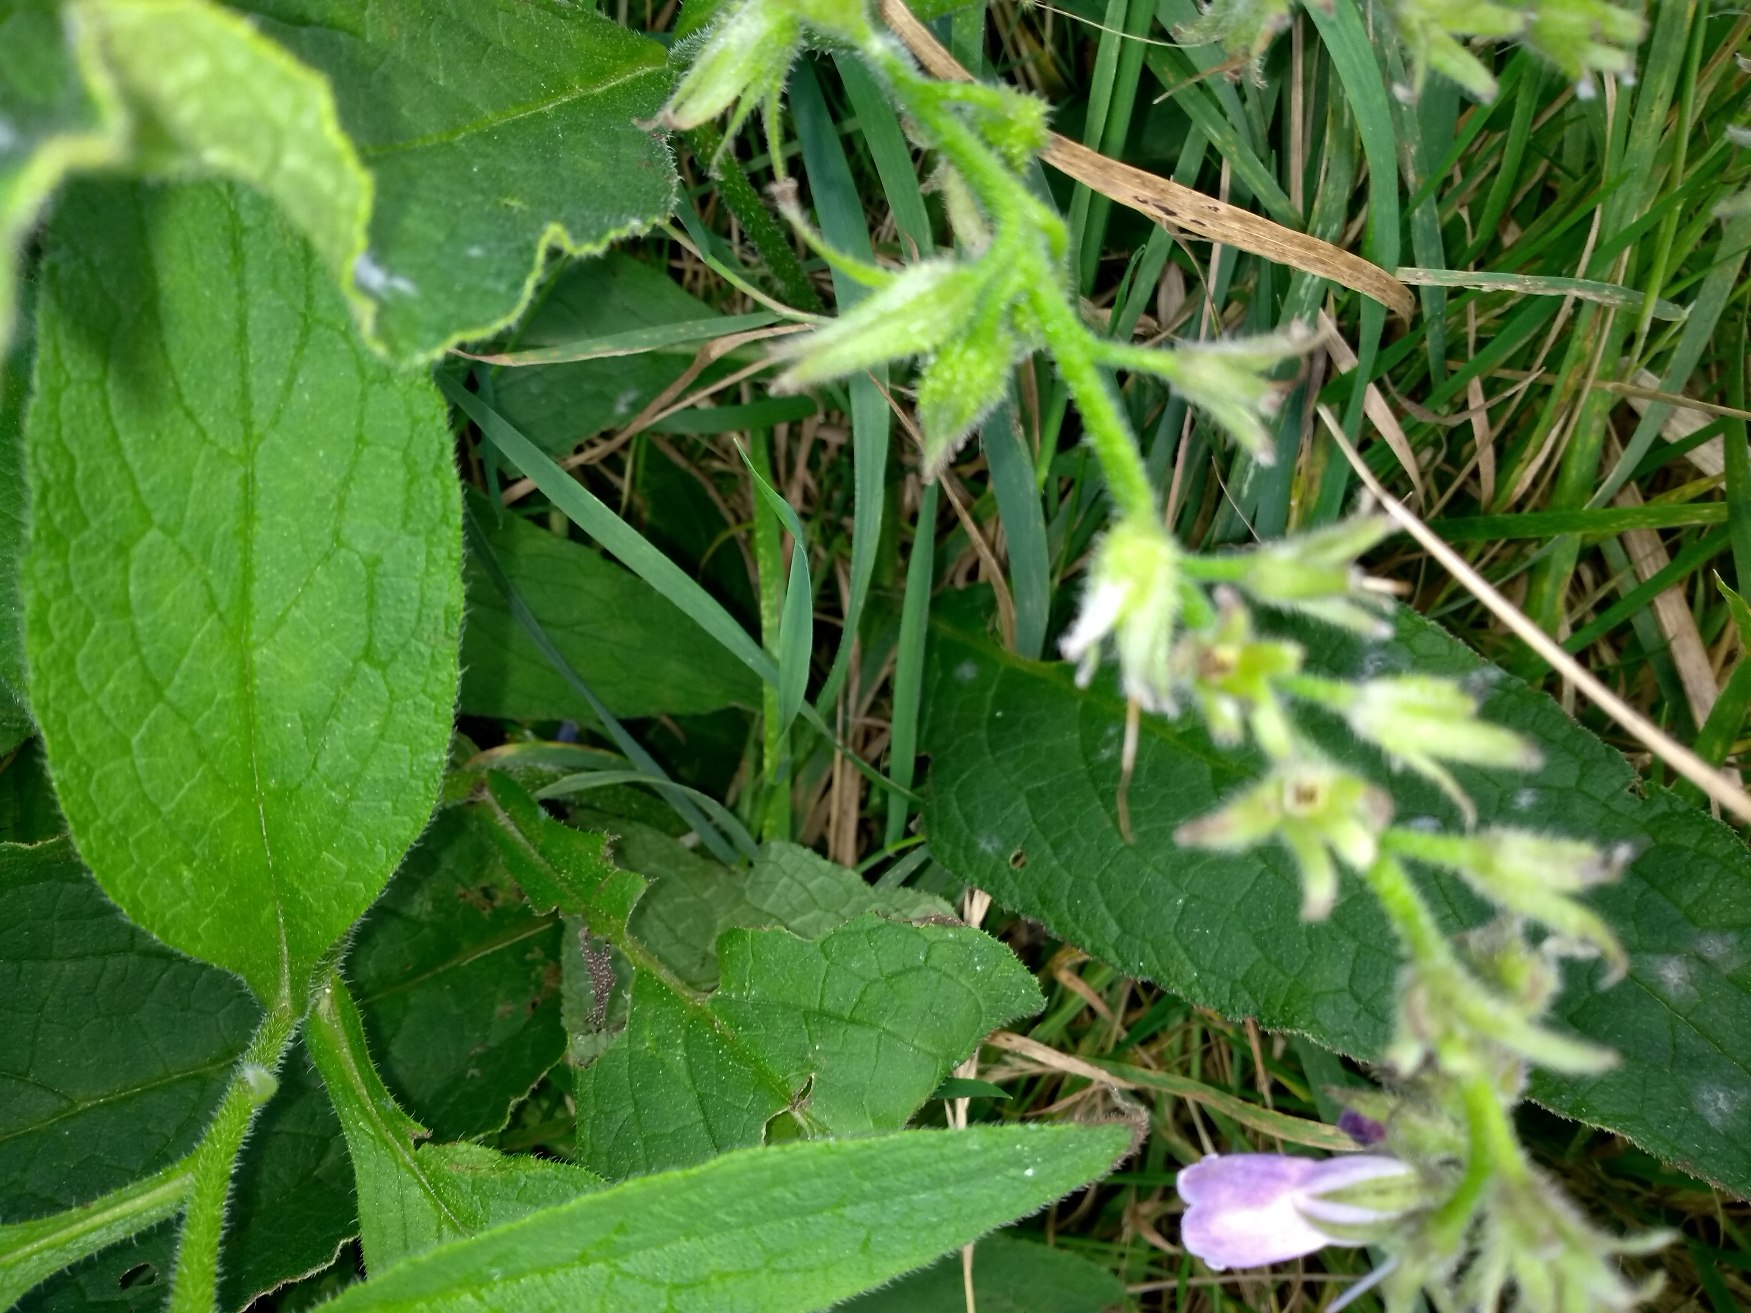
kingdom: Plantae
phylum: Tracheophyta
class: Magnoliopsida
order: Boraginales
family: Boraginaceae
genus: Symphytum
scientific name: Symphytum uplandicum
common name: Foder-kulsukker
